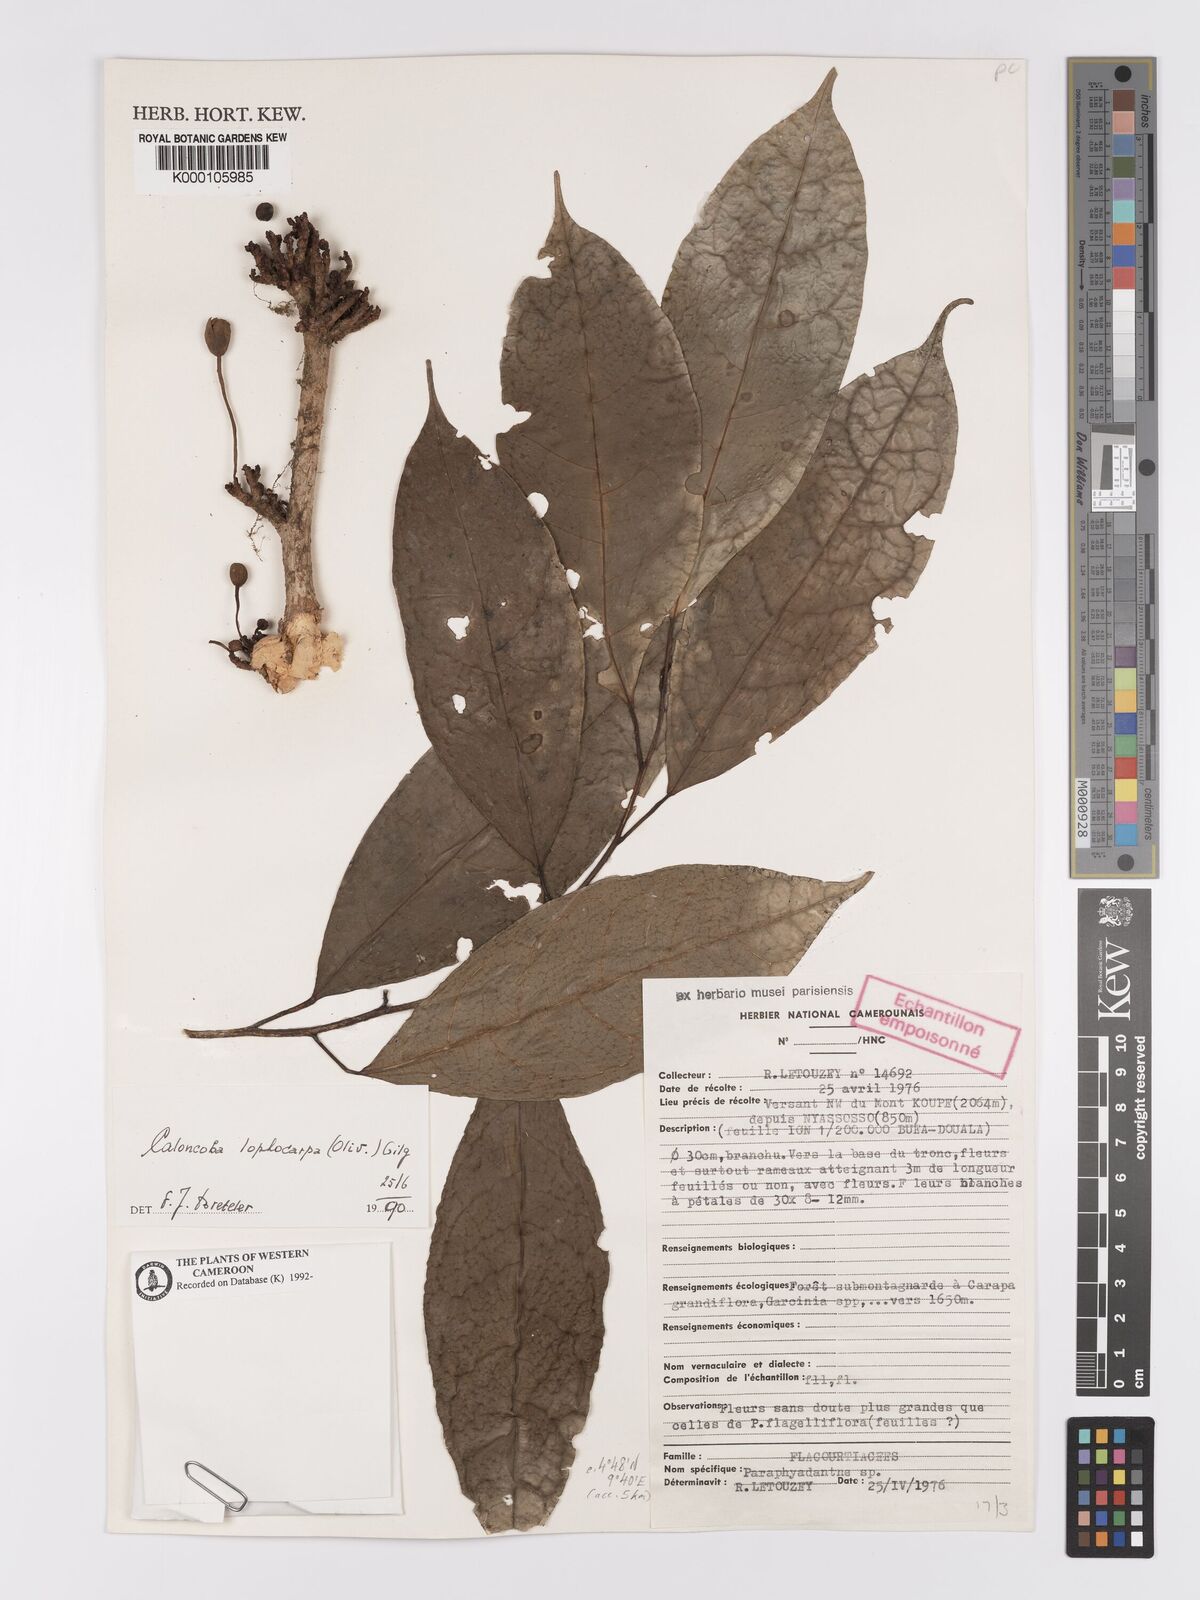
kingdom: Plantae
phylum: Tracheophyta
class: Magnoliopsida
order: Malpighiales
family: Achariaceae
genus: Caloncoba
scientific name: Caloncoba lophocarpa
